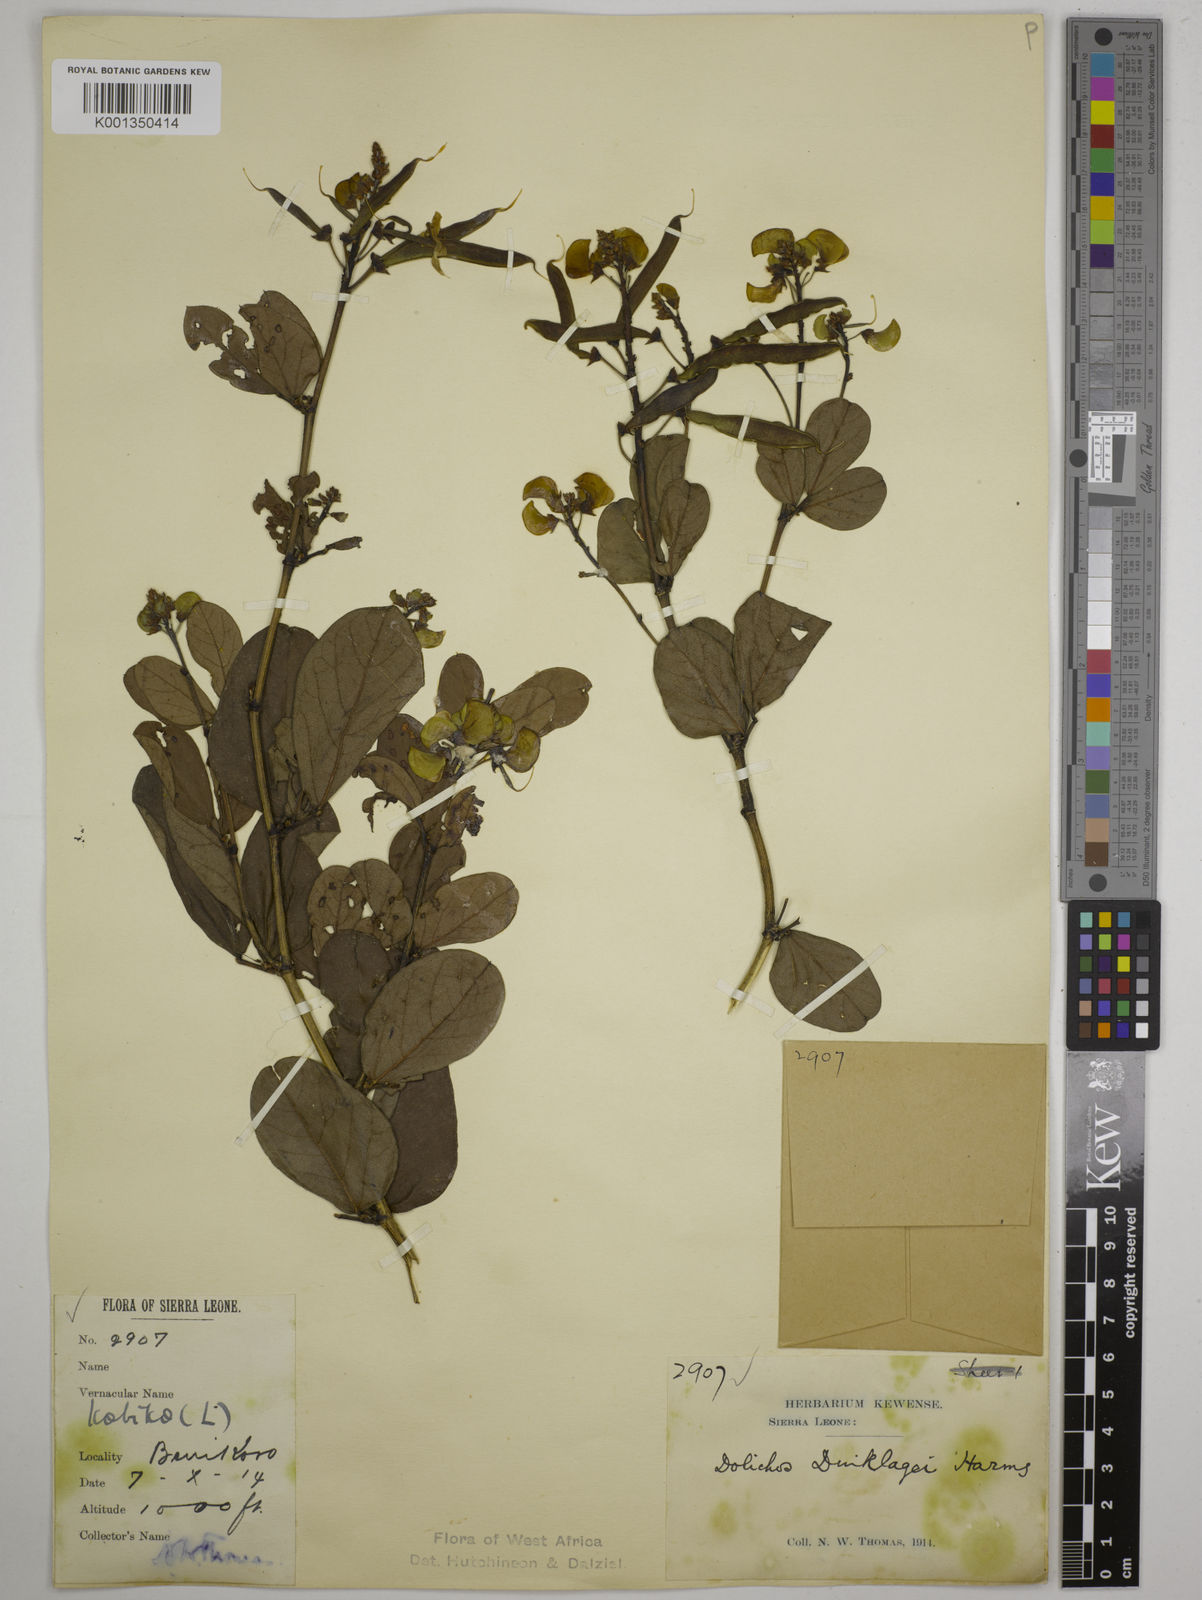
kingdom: Plantae
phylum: Tracheophyta
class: Magnoliopsida
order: Fabales
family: Fabaceae
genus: Dolichos
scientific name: Dolichos dinklagei
